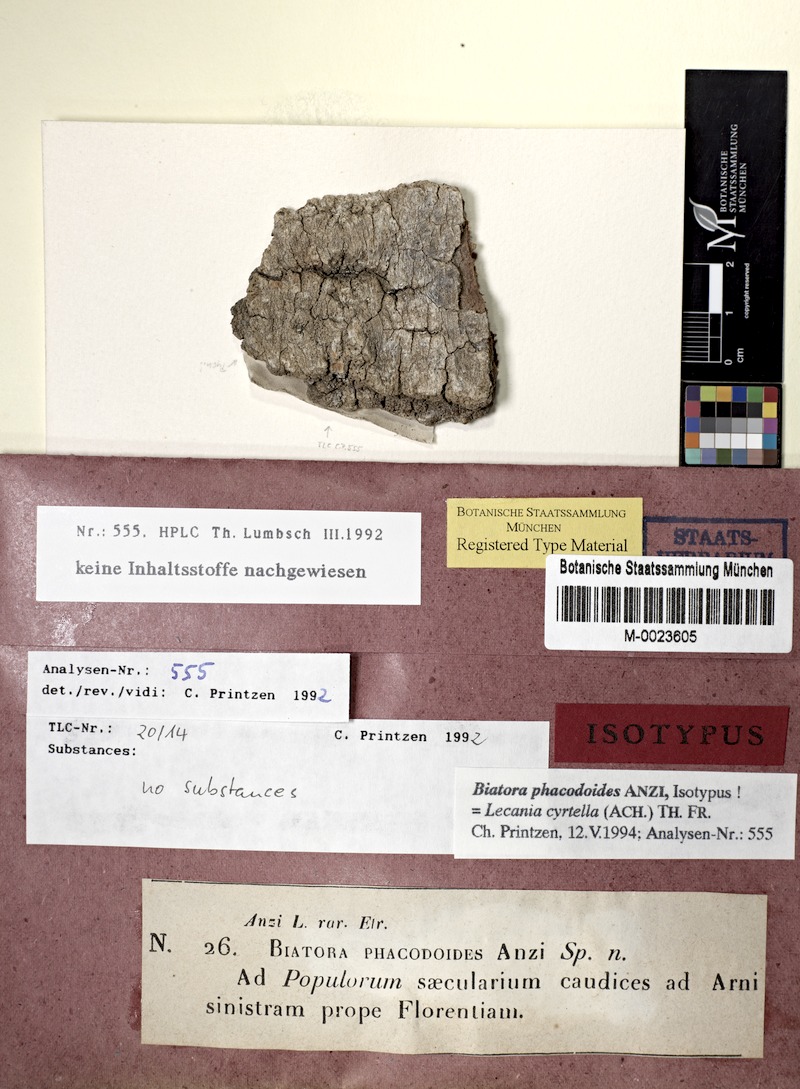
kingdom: Fungi
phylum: Ascomycota
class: Lecanoromycetes
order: Lecanorales
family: Ramalinaceae
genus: Lecania
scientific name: Lecania cyrtella
